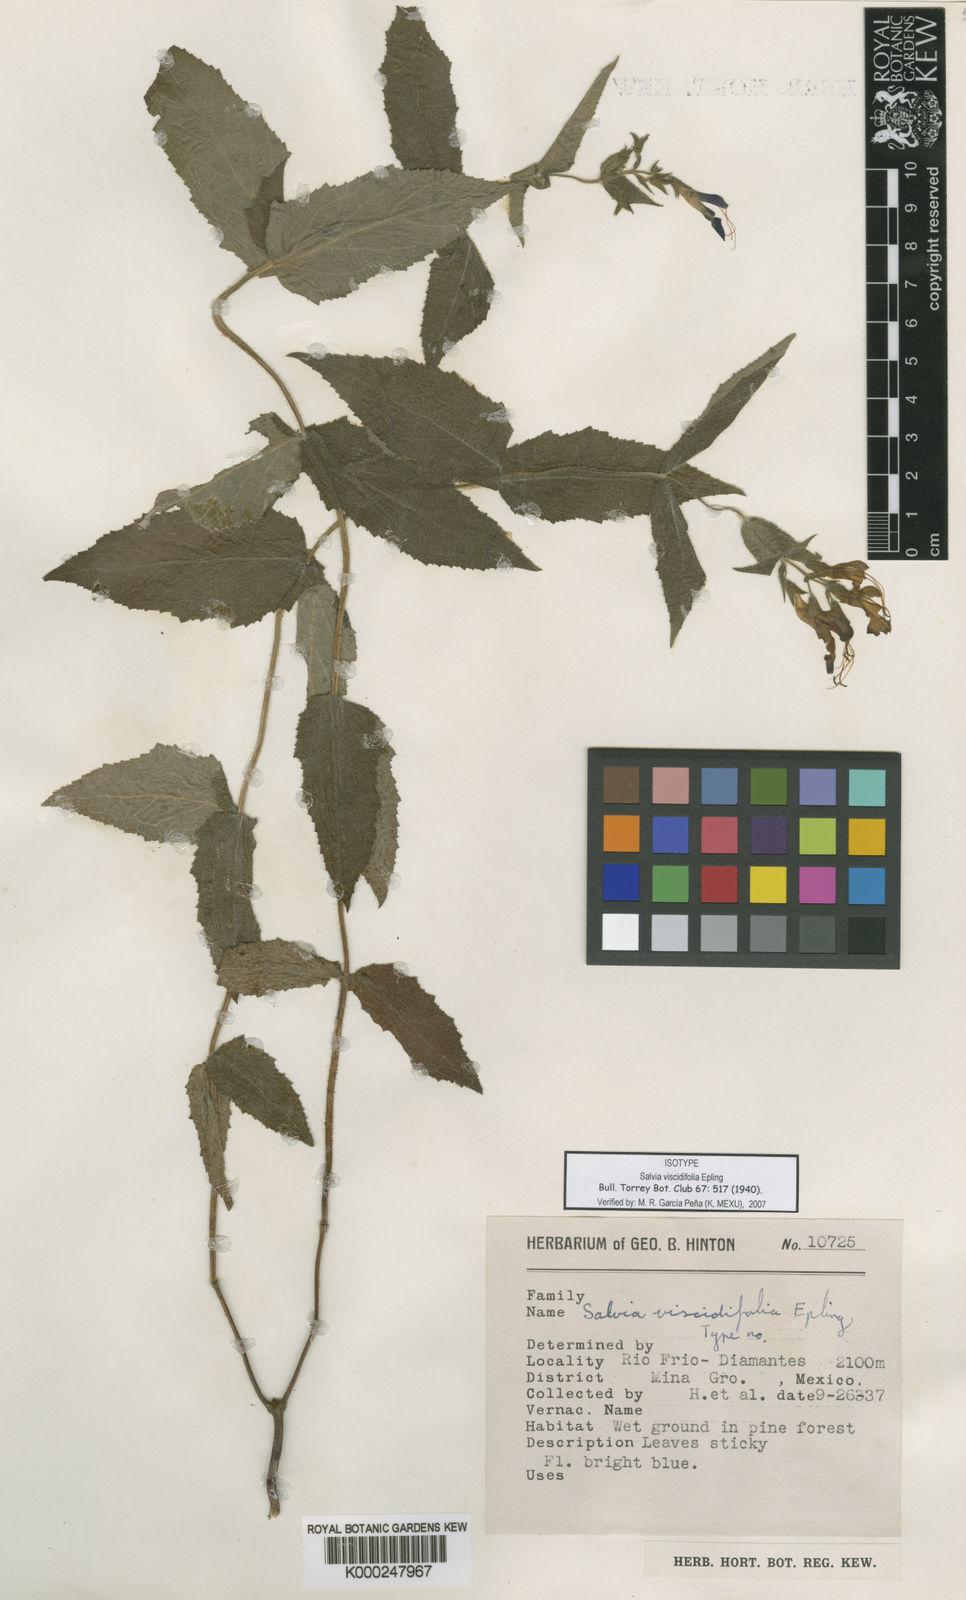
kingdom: Plantae
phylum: Tracheophyta
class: Magnoliopsida
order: Lamiales
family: Lamiaceae
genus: Salvia
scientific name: Salvia subpatens
